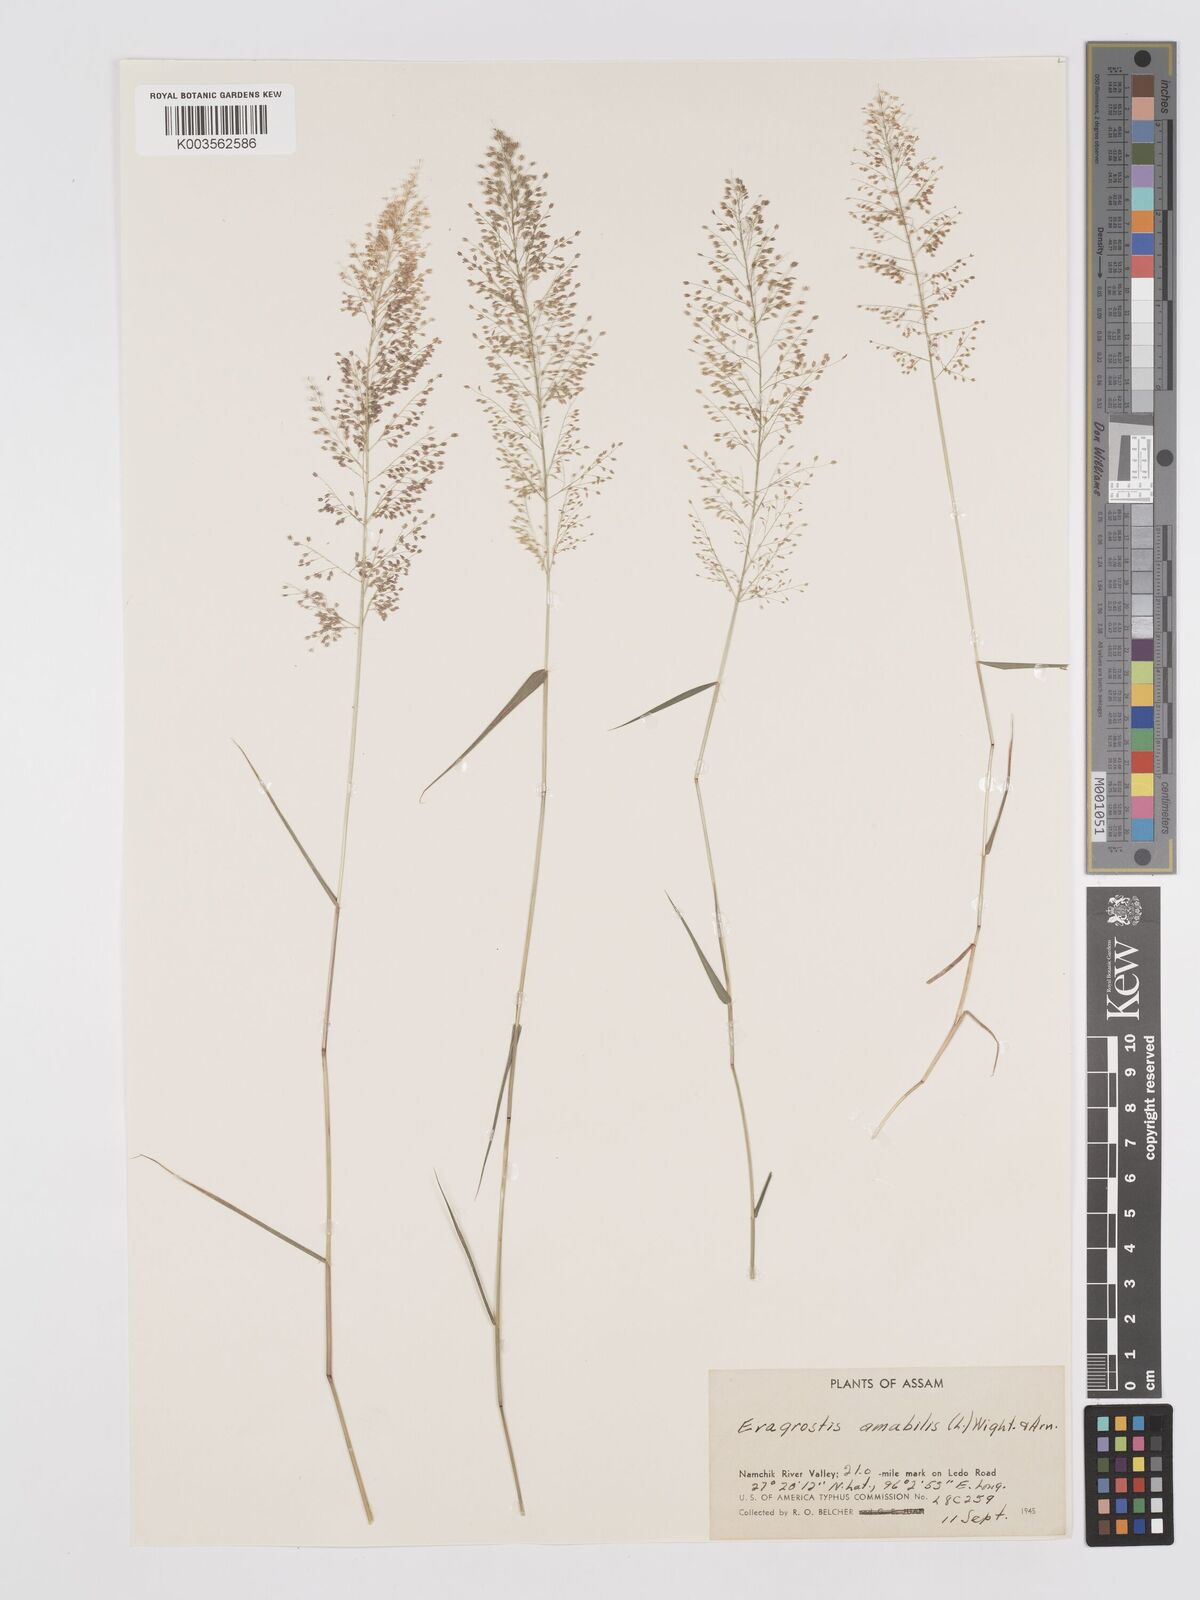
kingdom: Plantae
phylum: Tracheophyta
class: Liliopsida
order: Poales
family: Poaceae
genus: Eragrostis
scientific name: Eragrostis tenella
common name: Japanese lovegrass
